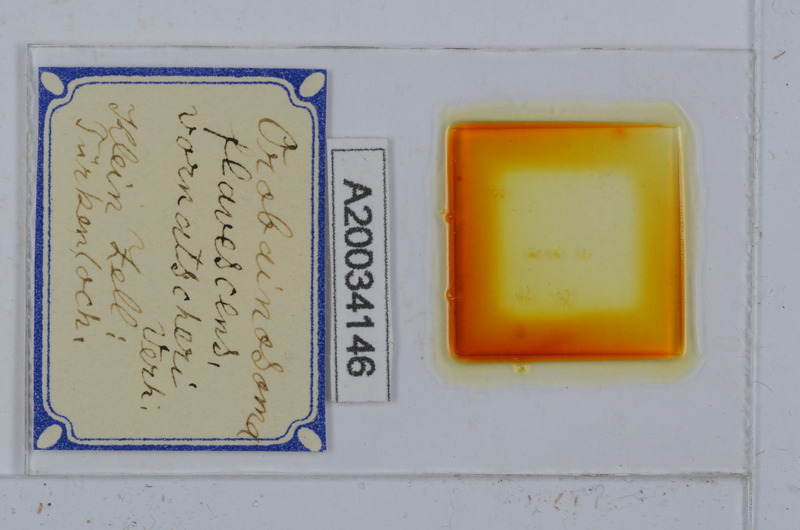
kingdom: Animalia
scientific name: Animalia
